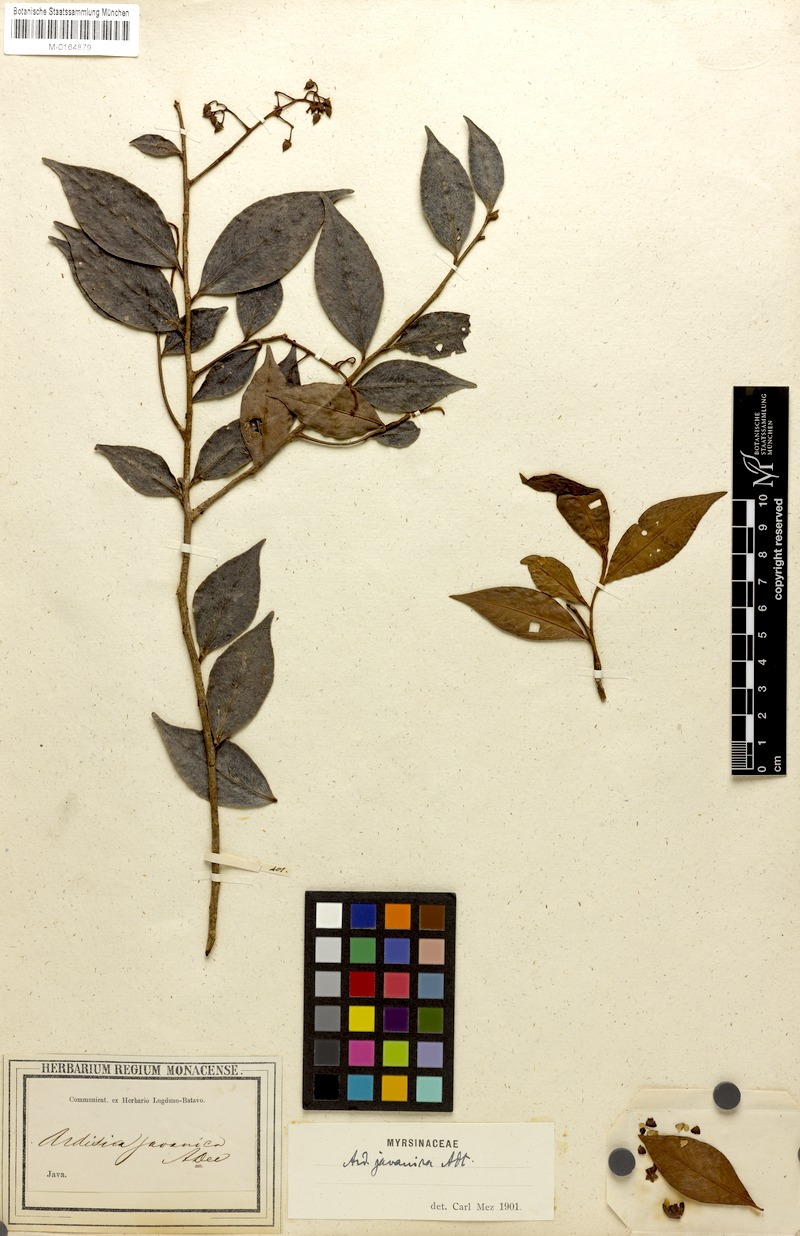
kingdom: Plantae
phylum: Tracheophyta
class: Magnoliopsida
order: Ericales
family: Primulaceae
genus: Ardisia
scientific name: Ardisia javanica
